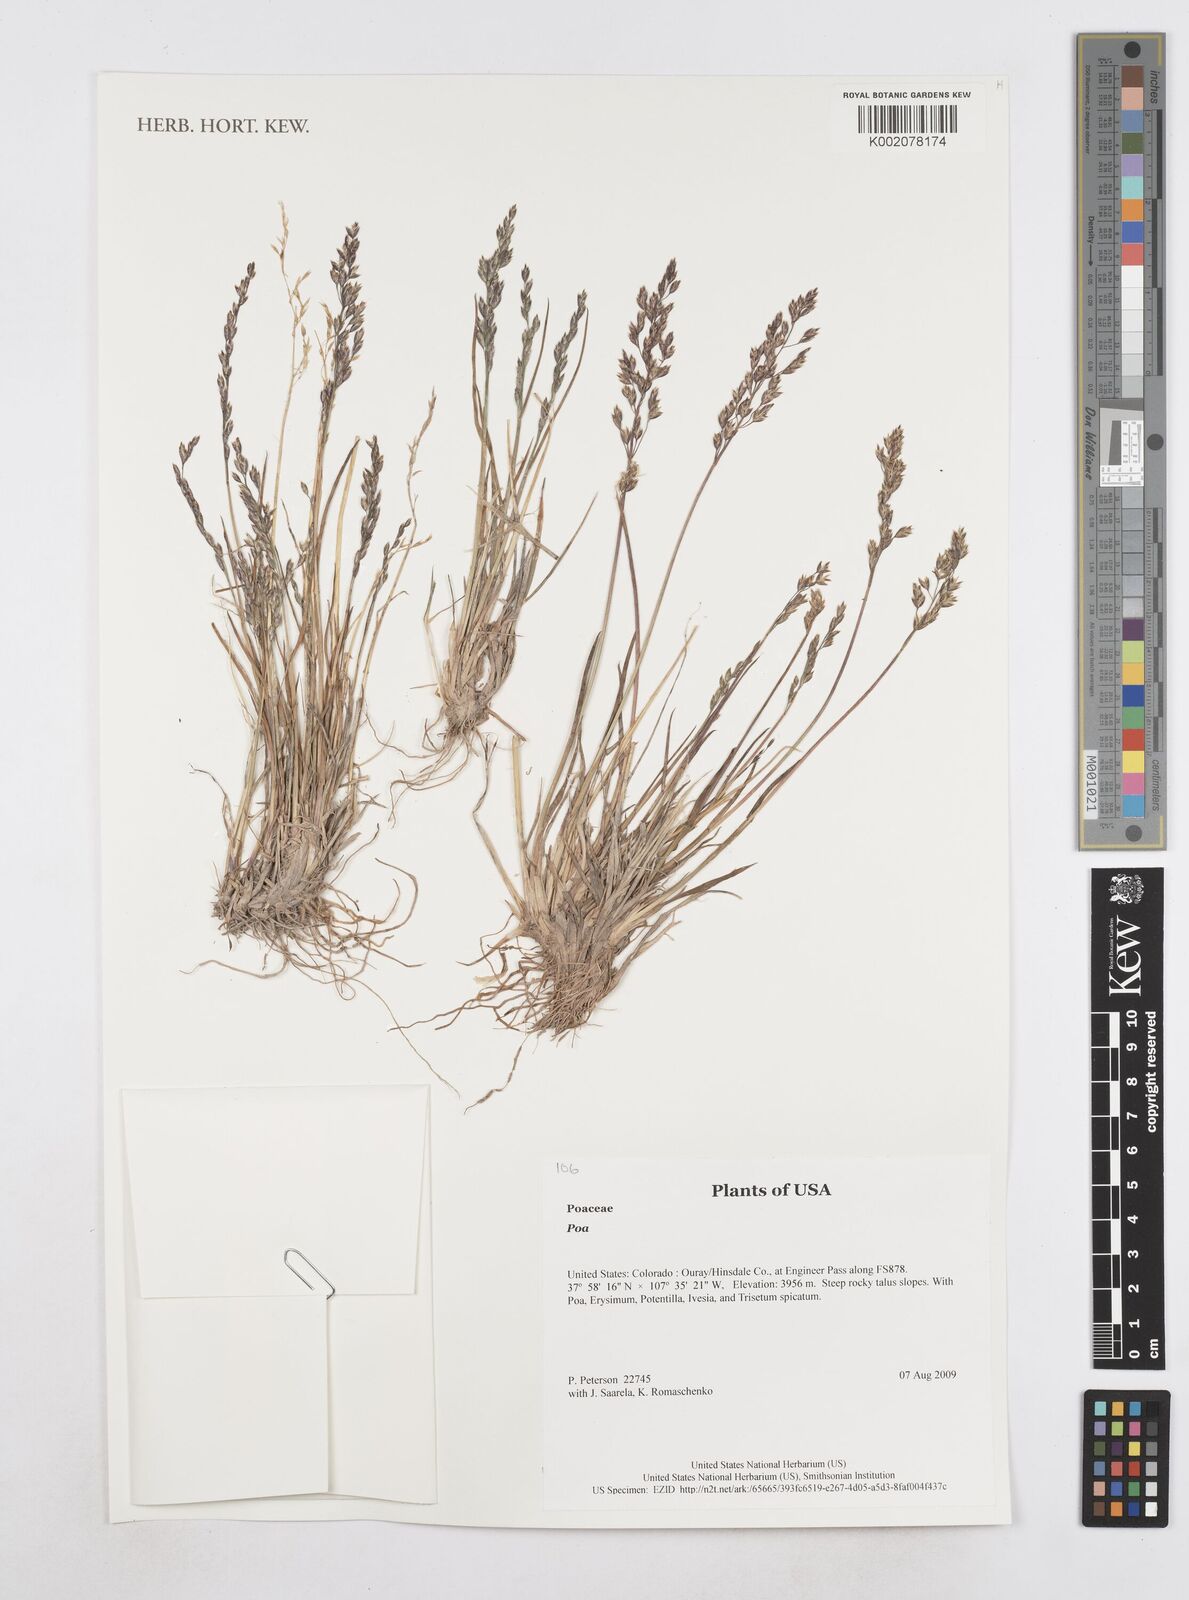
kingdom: Plantae
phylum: Tracheophyta
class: Liliopsida
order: Poales
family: Poaceae
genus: Poa
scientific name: Poa
